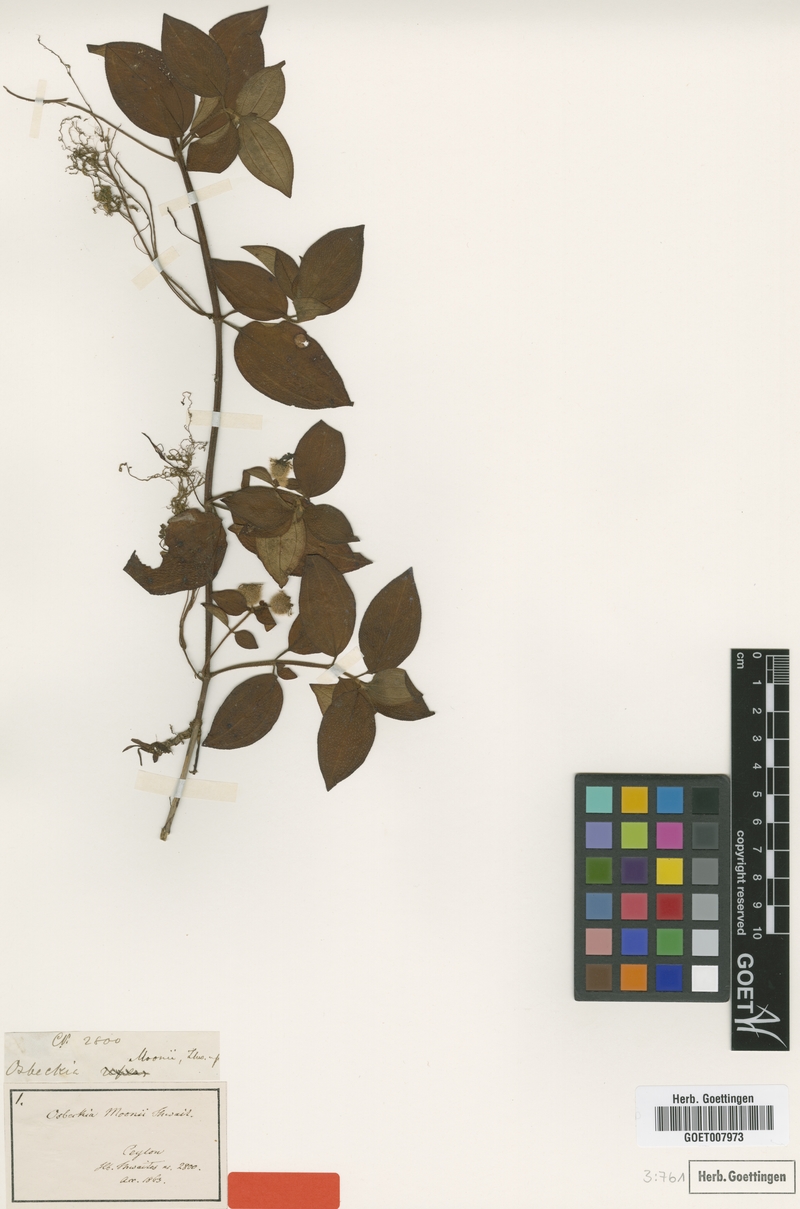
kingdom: Plantae
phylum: Tracheophyta
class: Magnoliopsida
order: Myrtales
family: Melastomataceae
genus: Spathandra
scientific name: Spathandra blakeoides
